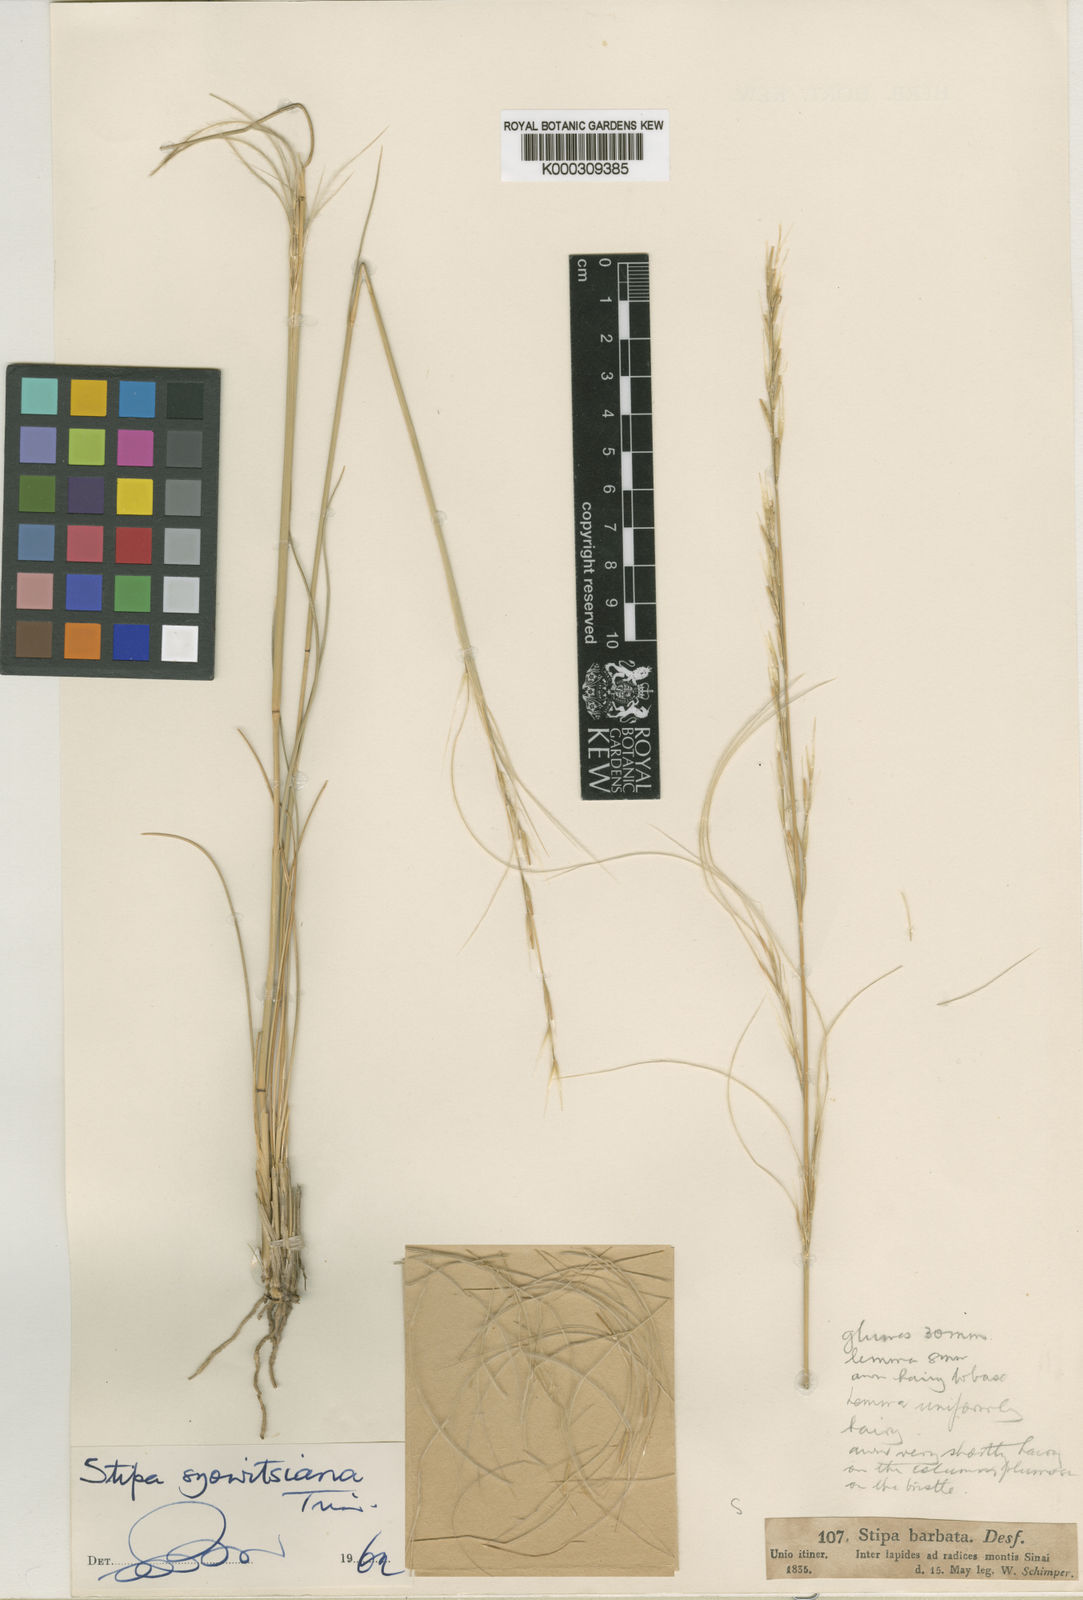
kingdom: Plantae
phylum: Tracheophyta
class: Liliopsida
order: Poales
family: Poaceae
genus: Stipa
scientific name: Stipa arabica
